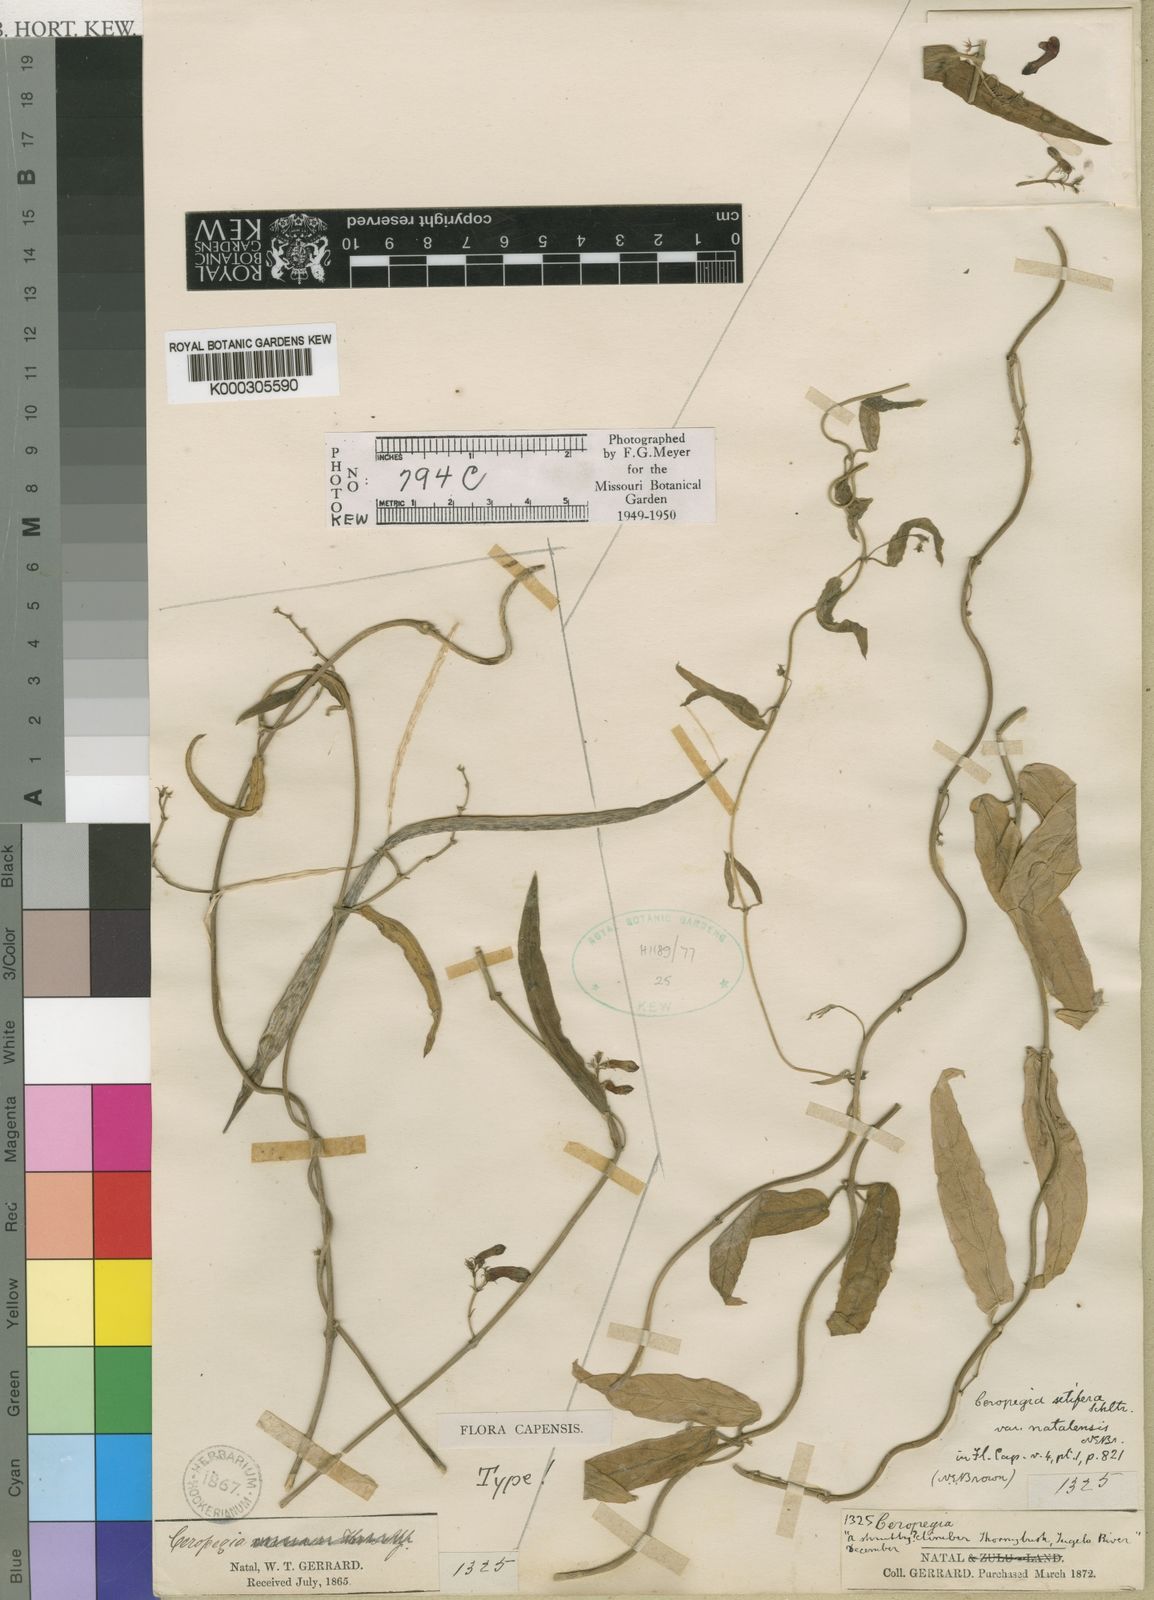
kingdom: Plantae
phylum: Tracheophyta
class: Magnoliopsida
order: Gentianales
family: Apocynaceae
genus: Ceropegia
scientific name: Ceropegia racemosa
